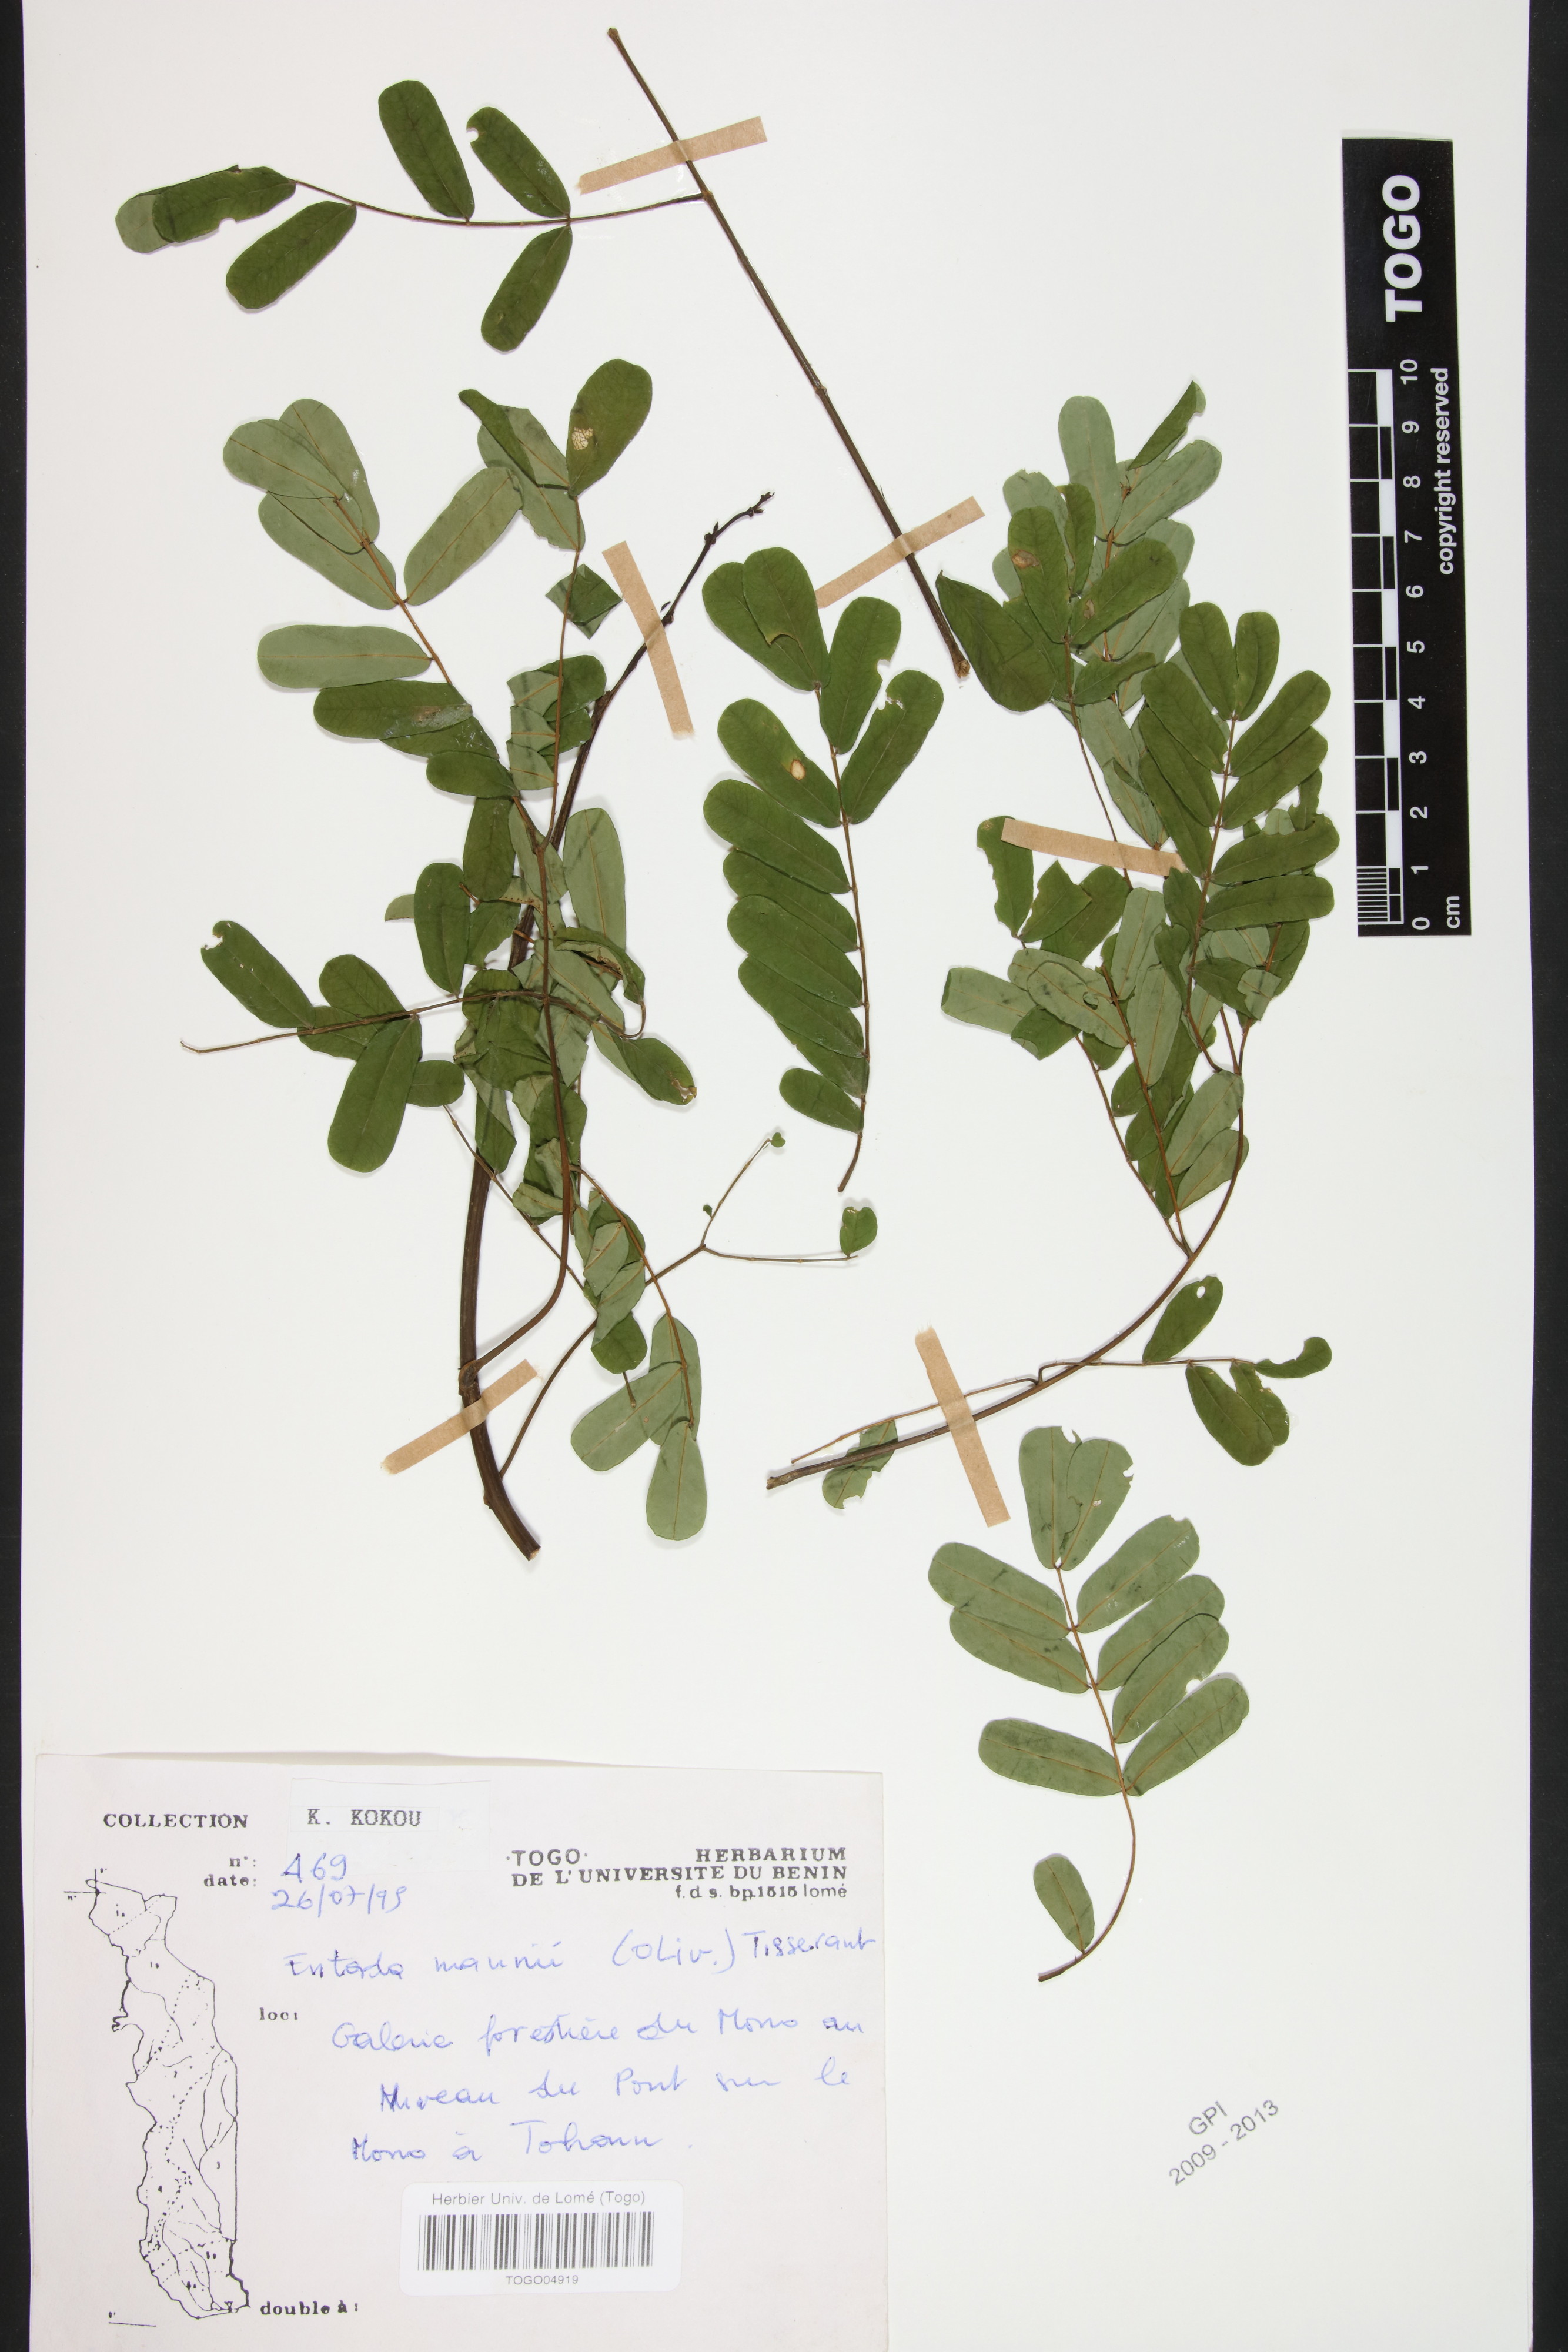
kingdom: Plantae
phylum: Tracheophyta
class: Magnoliopsida
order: Fabales
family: Fabaceae
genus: Entada
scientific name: Entada mannii
